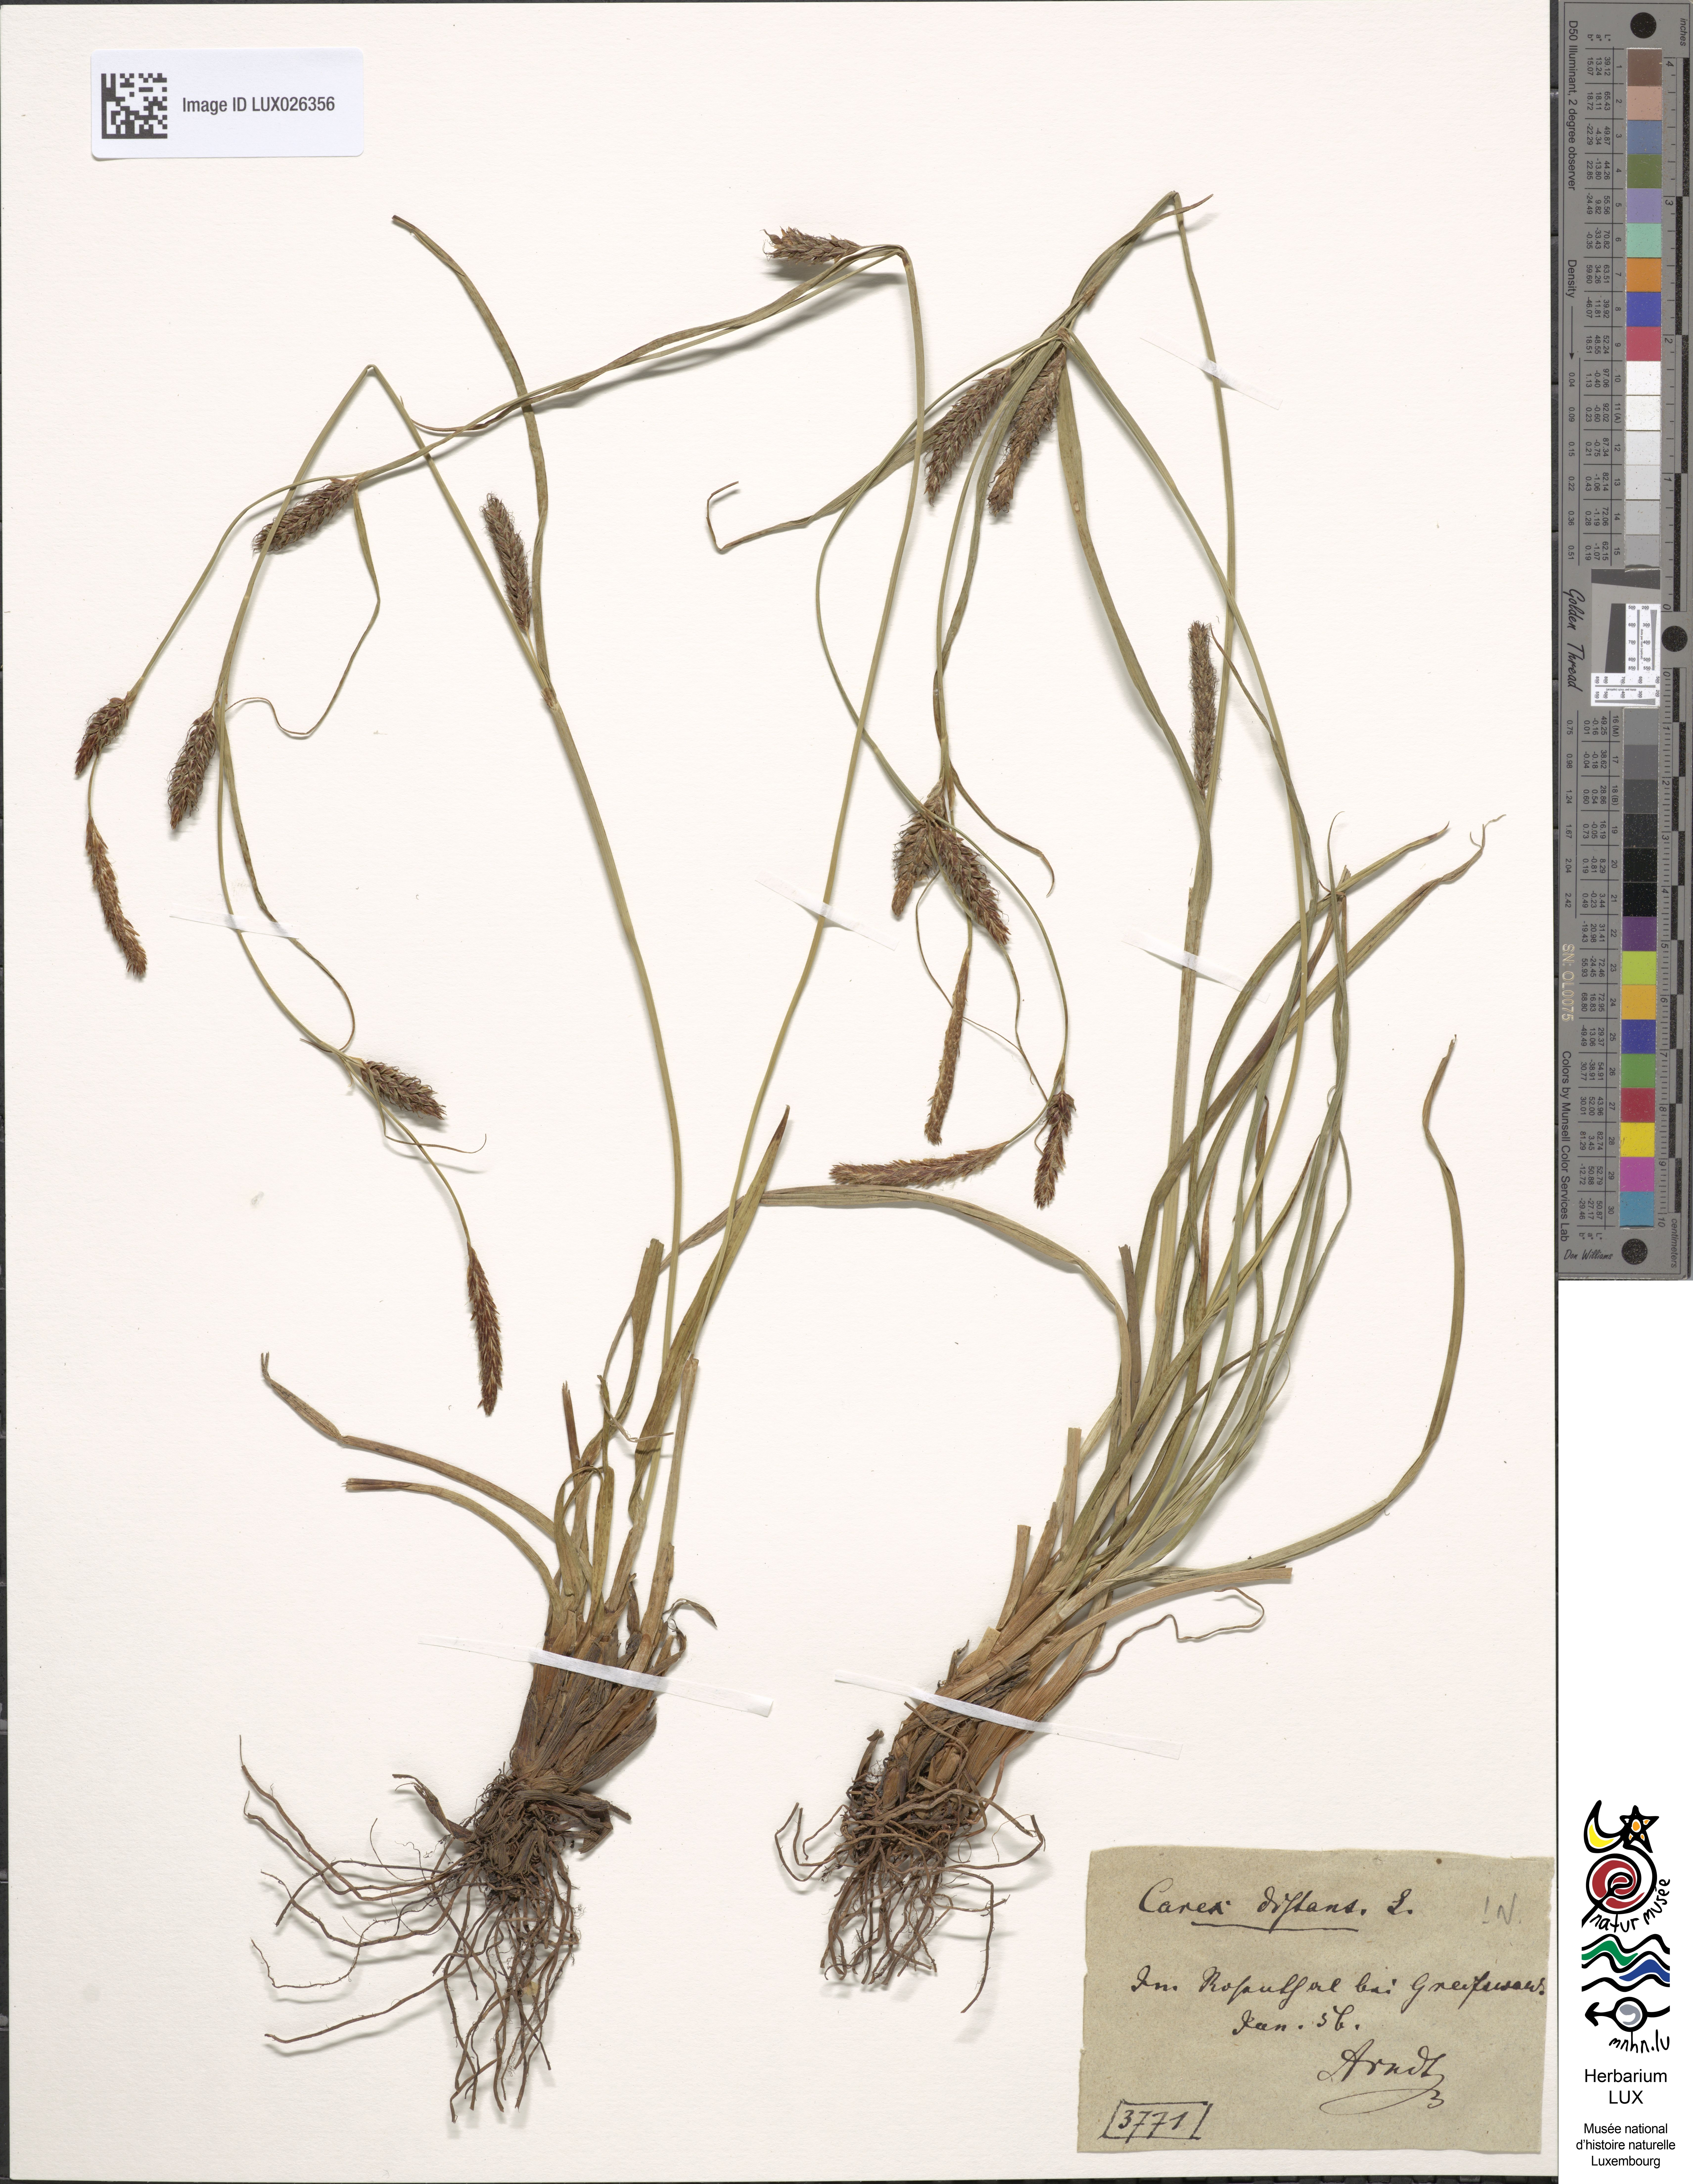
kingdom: Plantae
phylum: Tracheophyta
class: Liliopsida
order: Poales
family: Cyperaceae
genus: Carex
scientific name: Carex distans
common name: Distant sedge
